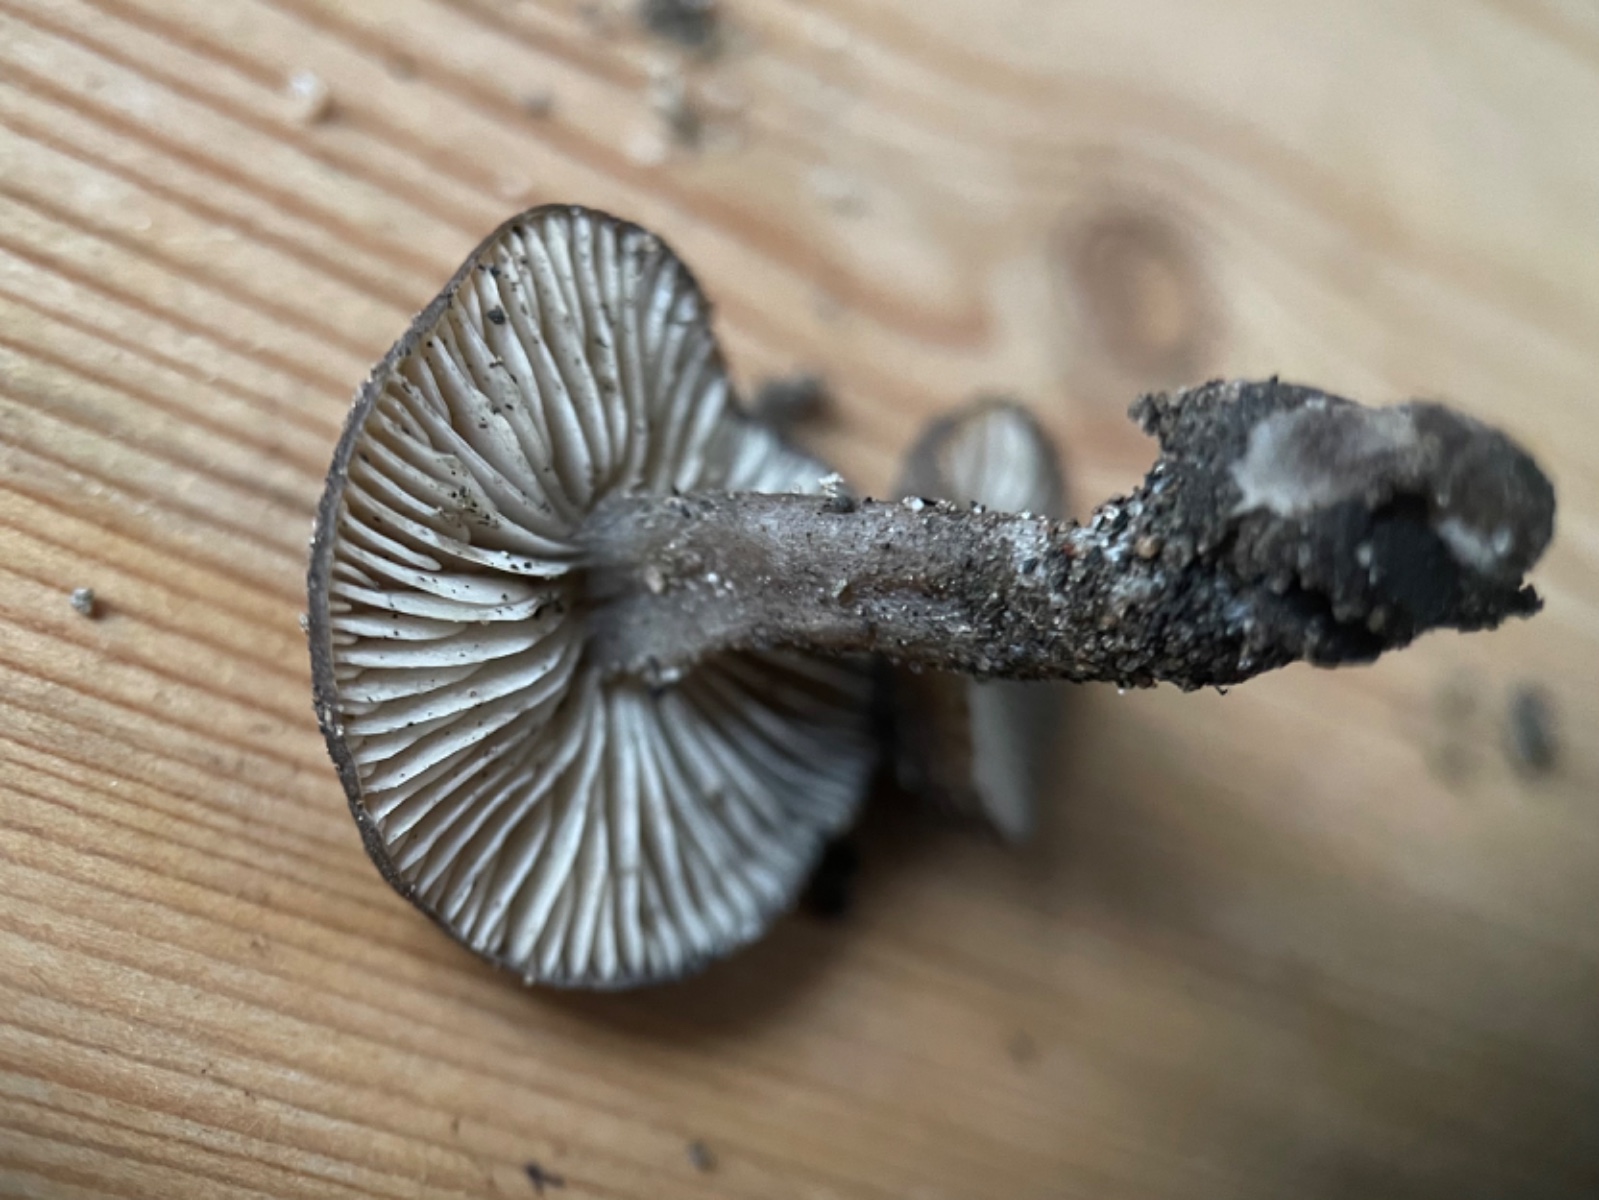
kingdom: Fungi
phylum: Basidiomycota
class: Agaricomycetes
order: Agaricales
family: Lyophyllaceae
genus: Sagaranella
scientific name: Sagaranella tylicolor
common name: kvælstof-gråblad
